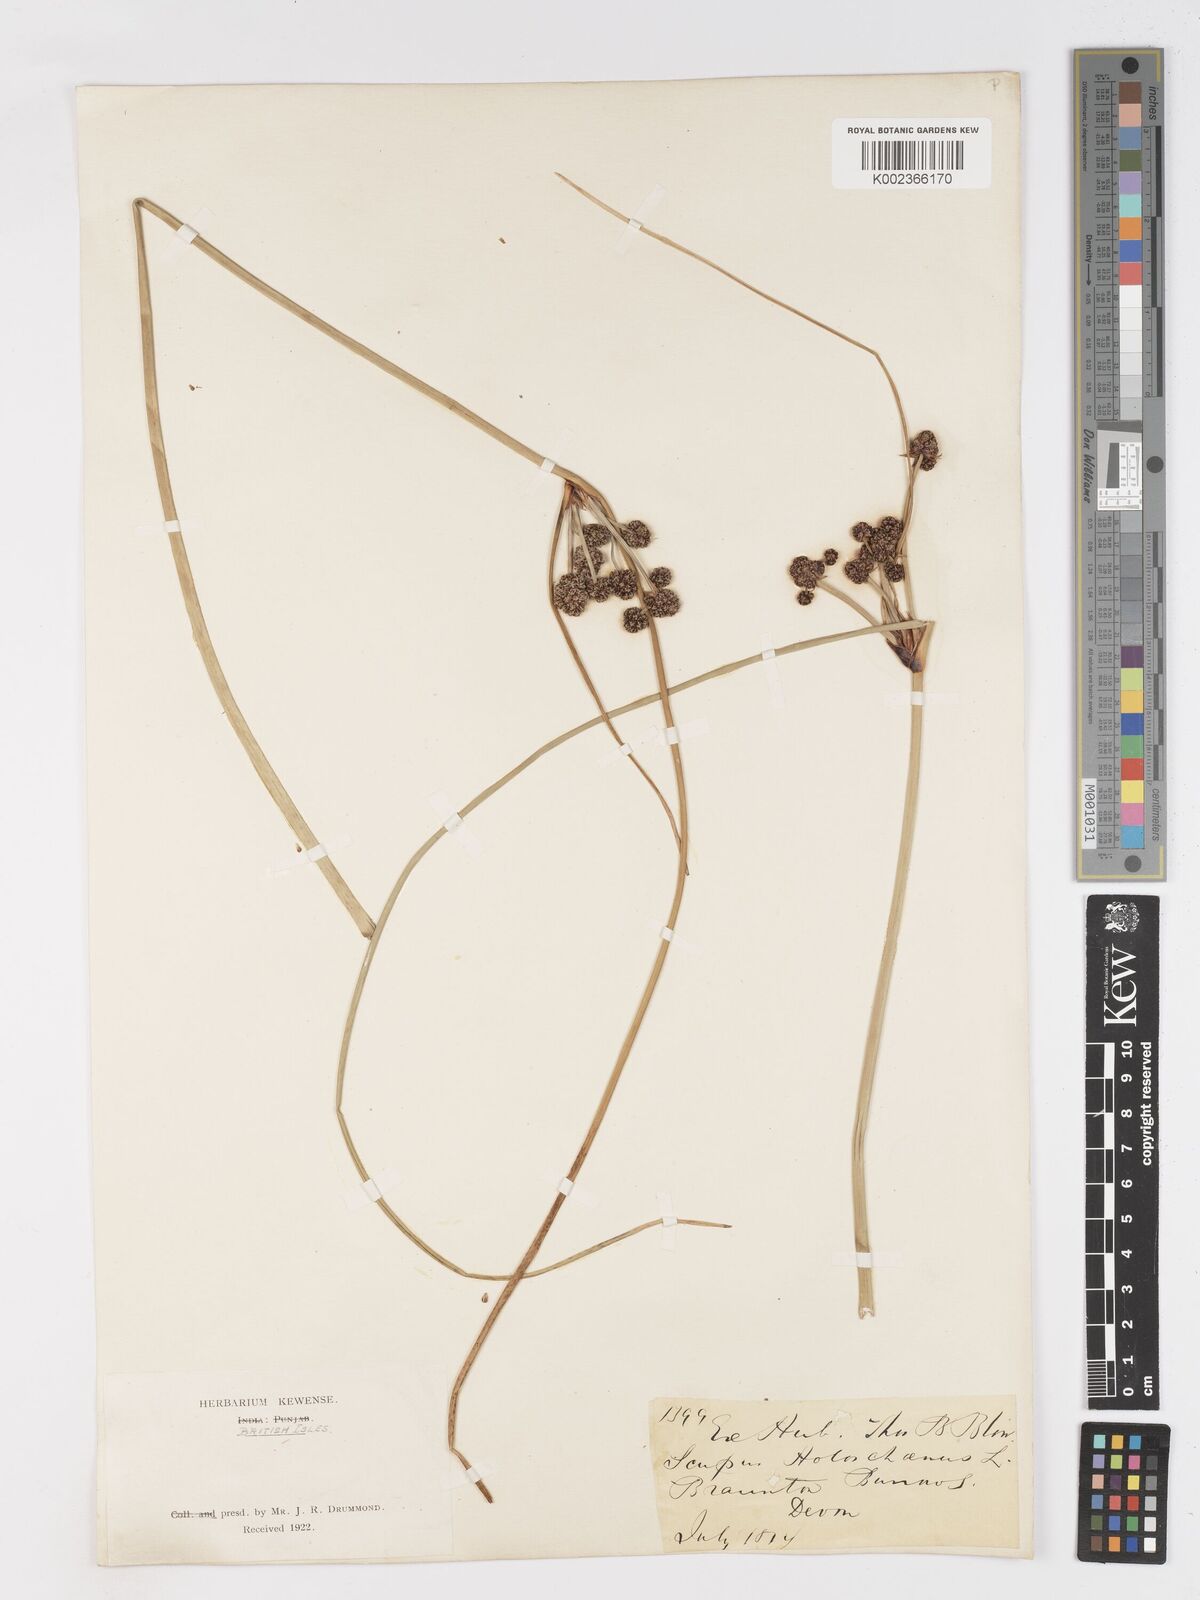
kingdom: Plantae
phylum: Tracheophyta
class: Liliopsida
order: Poales
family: Cyperaceae
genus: Scirpoides
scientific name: Scirpoides holoschoenus
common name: Round-headed club-rush
